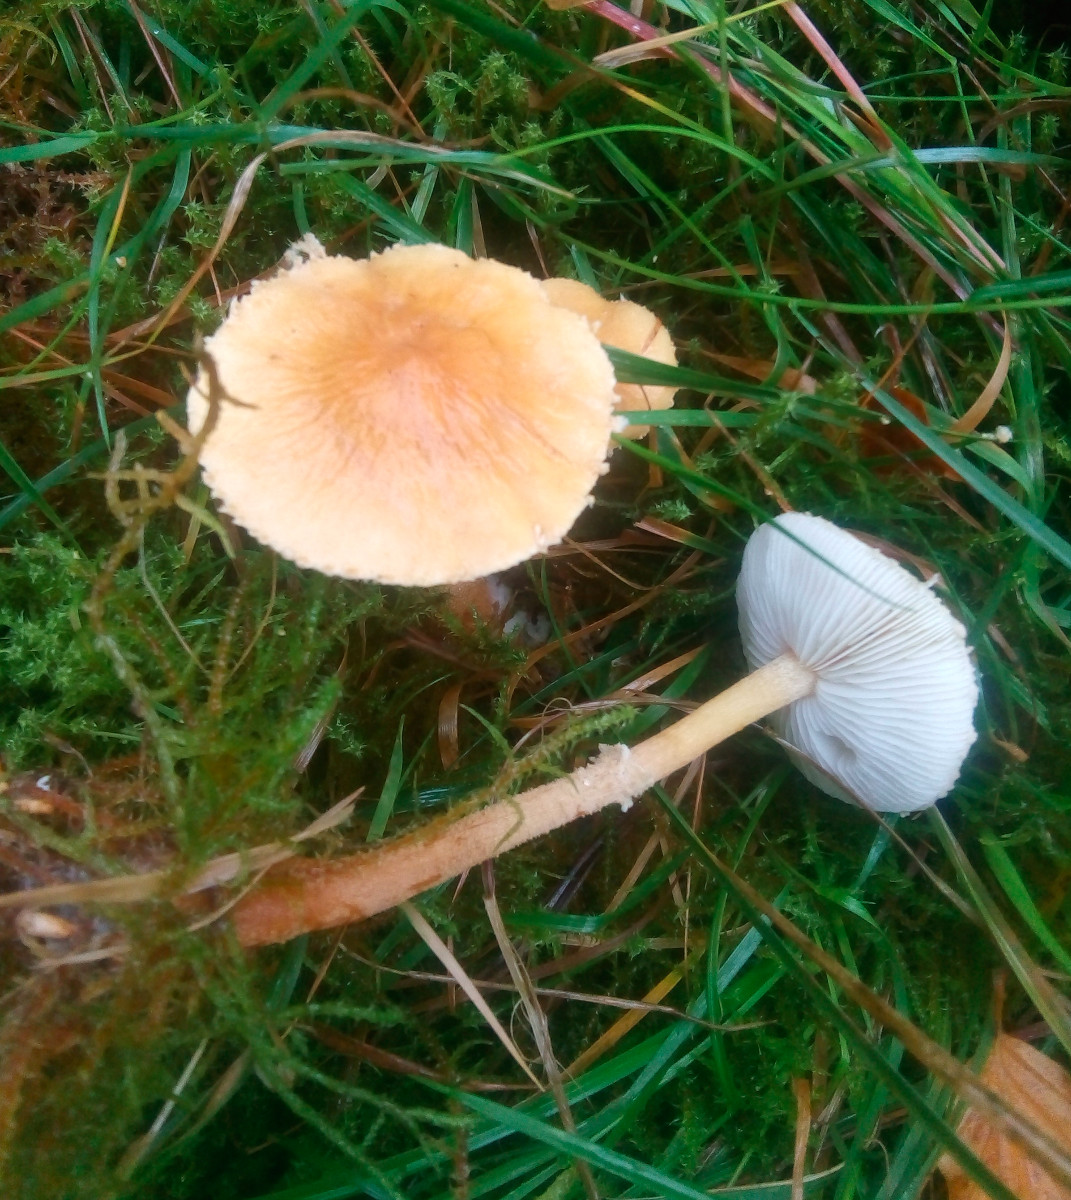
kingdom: Fungi
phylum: Basidiomycota
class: Agaricomycetes
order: Agaricales
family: Tricholomataceae
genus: Cystoderma
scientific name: Cystoderma amianthinum
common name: okkergul grynhat
